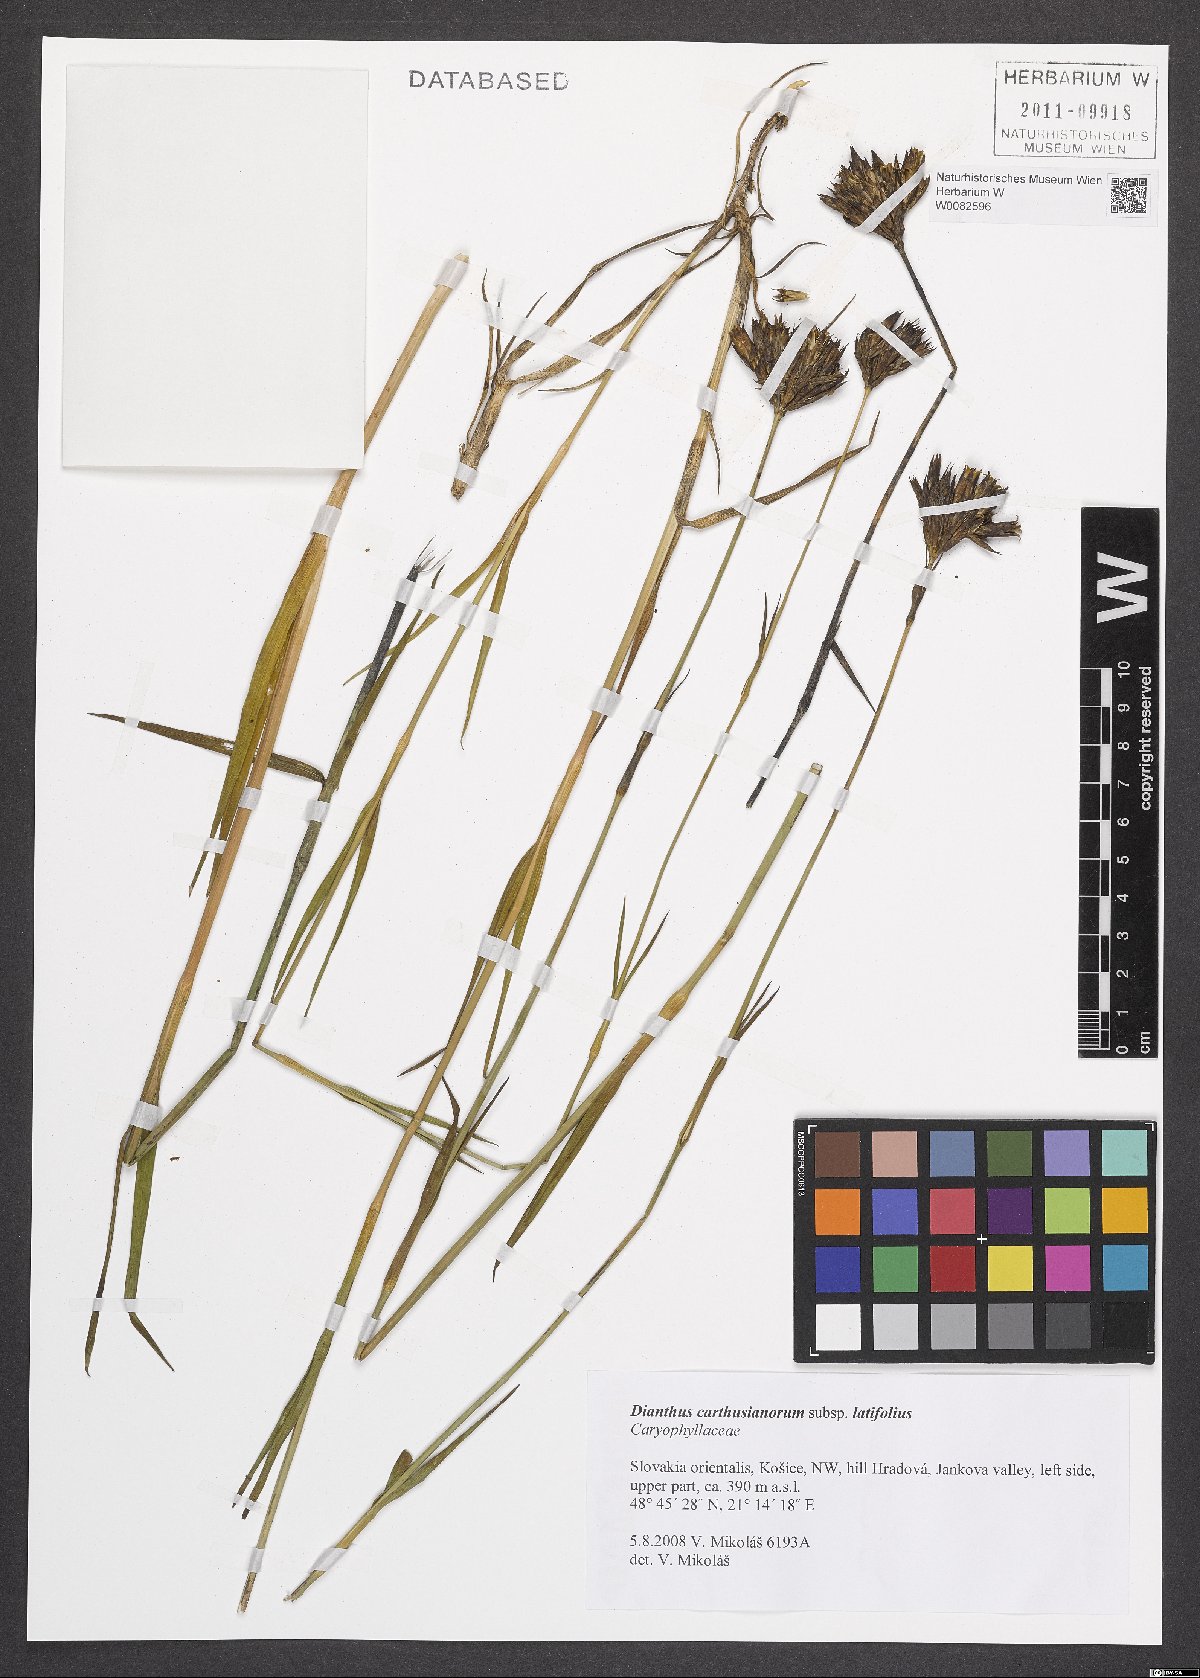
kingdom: Plantae
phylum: Tracheophyta
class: Magnoliopsida
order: Caryophyllales
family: Caryophyllaceae
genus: Dianthus
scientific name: Dianthus carthusianorum
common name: Carthusian pink
